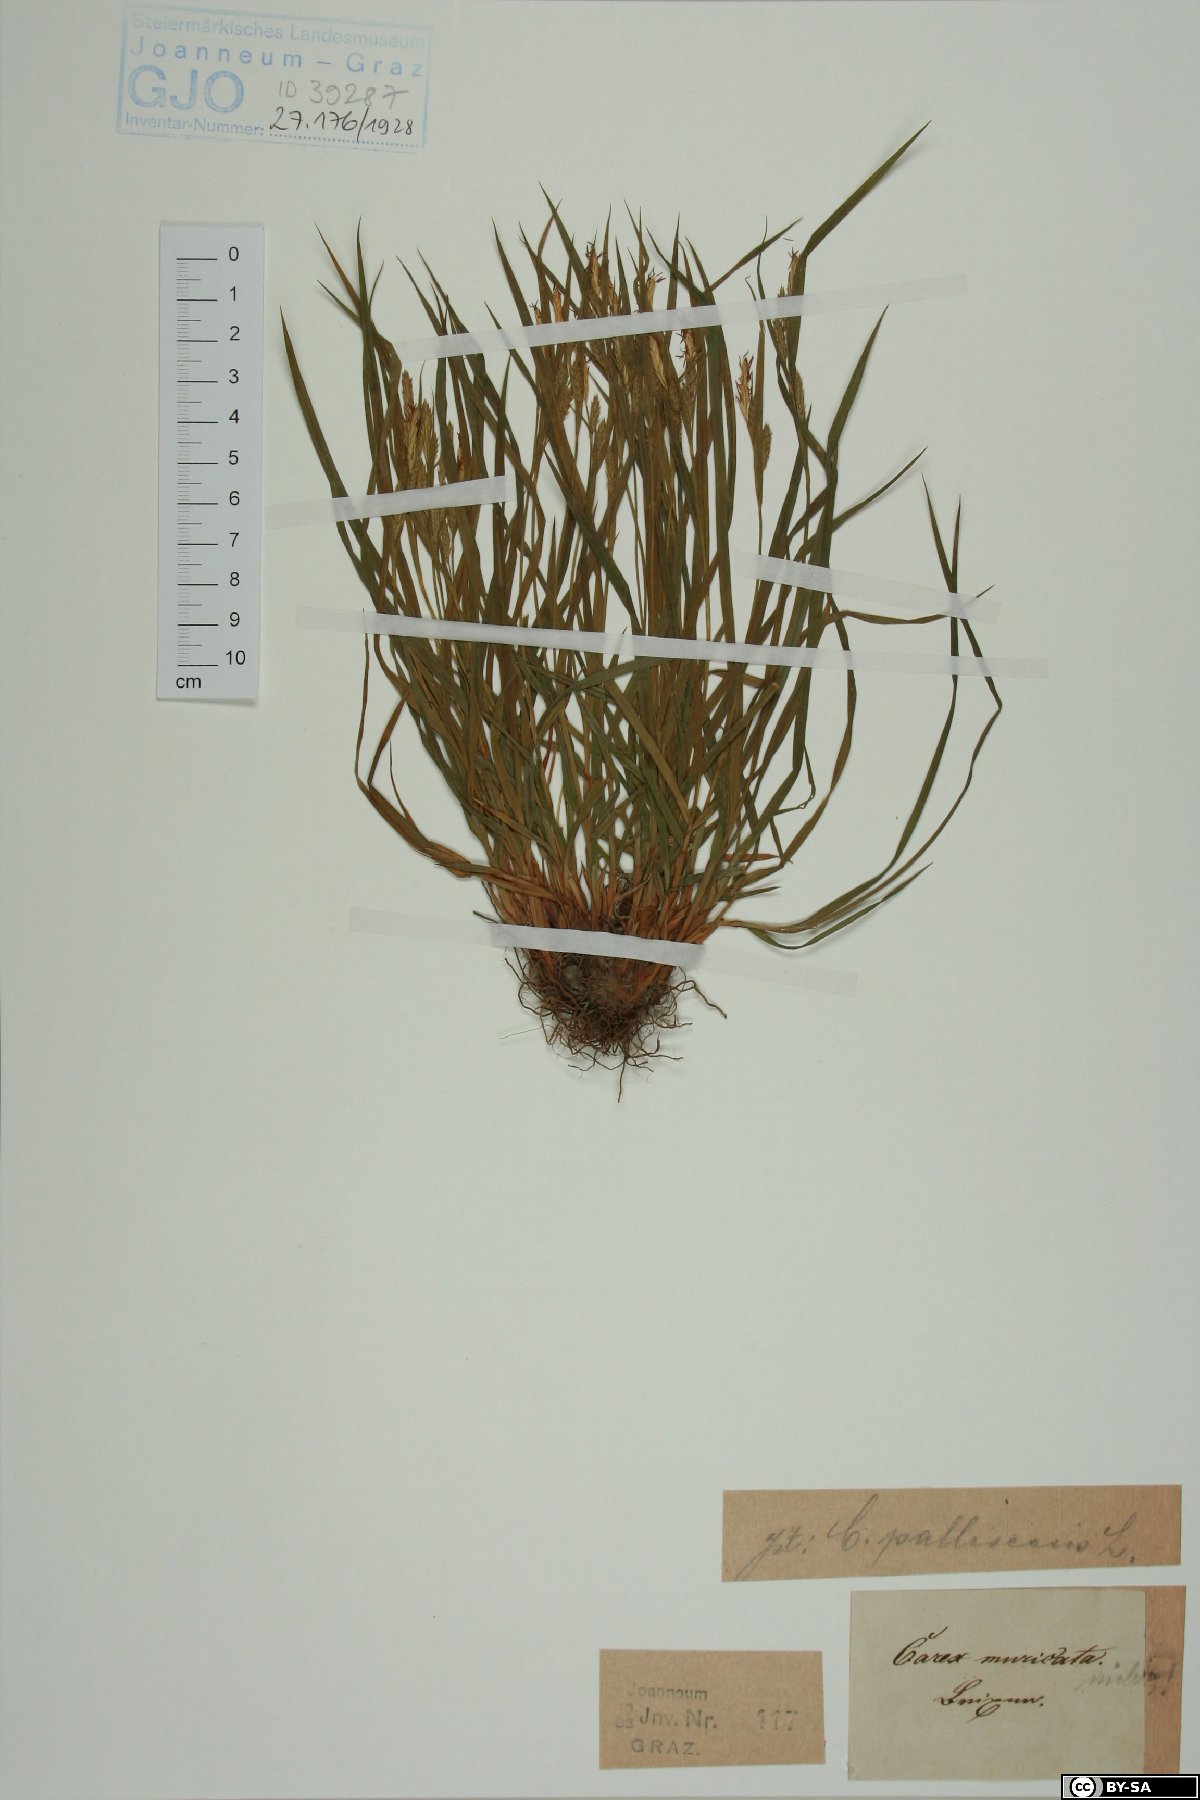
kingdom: Plantae
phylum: Tracheophyta
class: Liliopsida
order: Poales
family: Cyperaceae
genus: Carex
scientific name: Carex muricata
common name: Rough sedge
